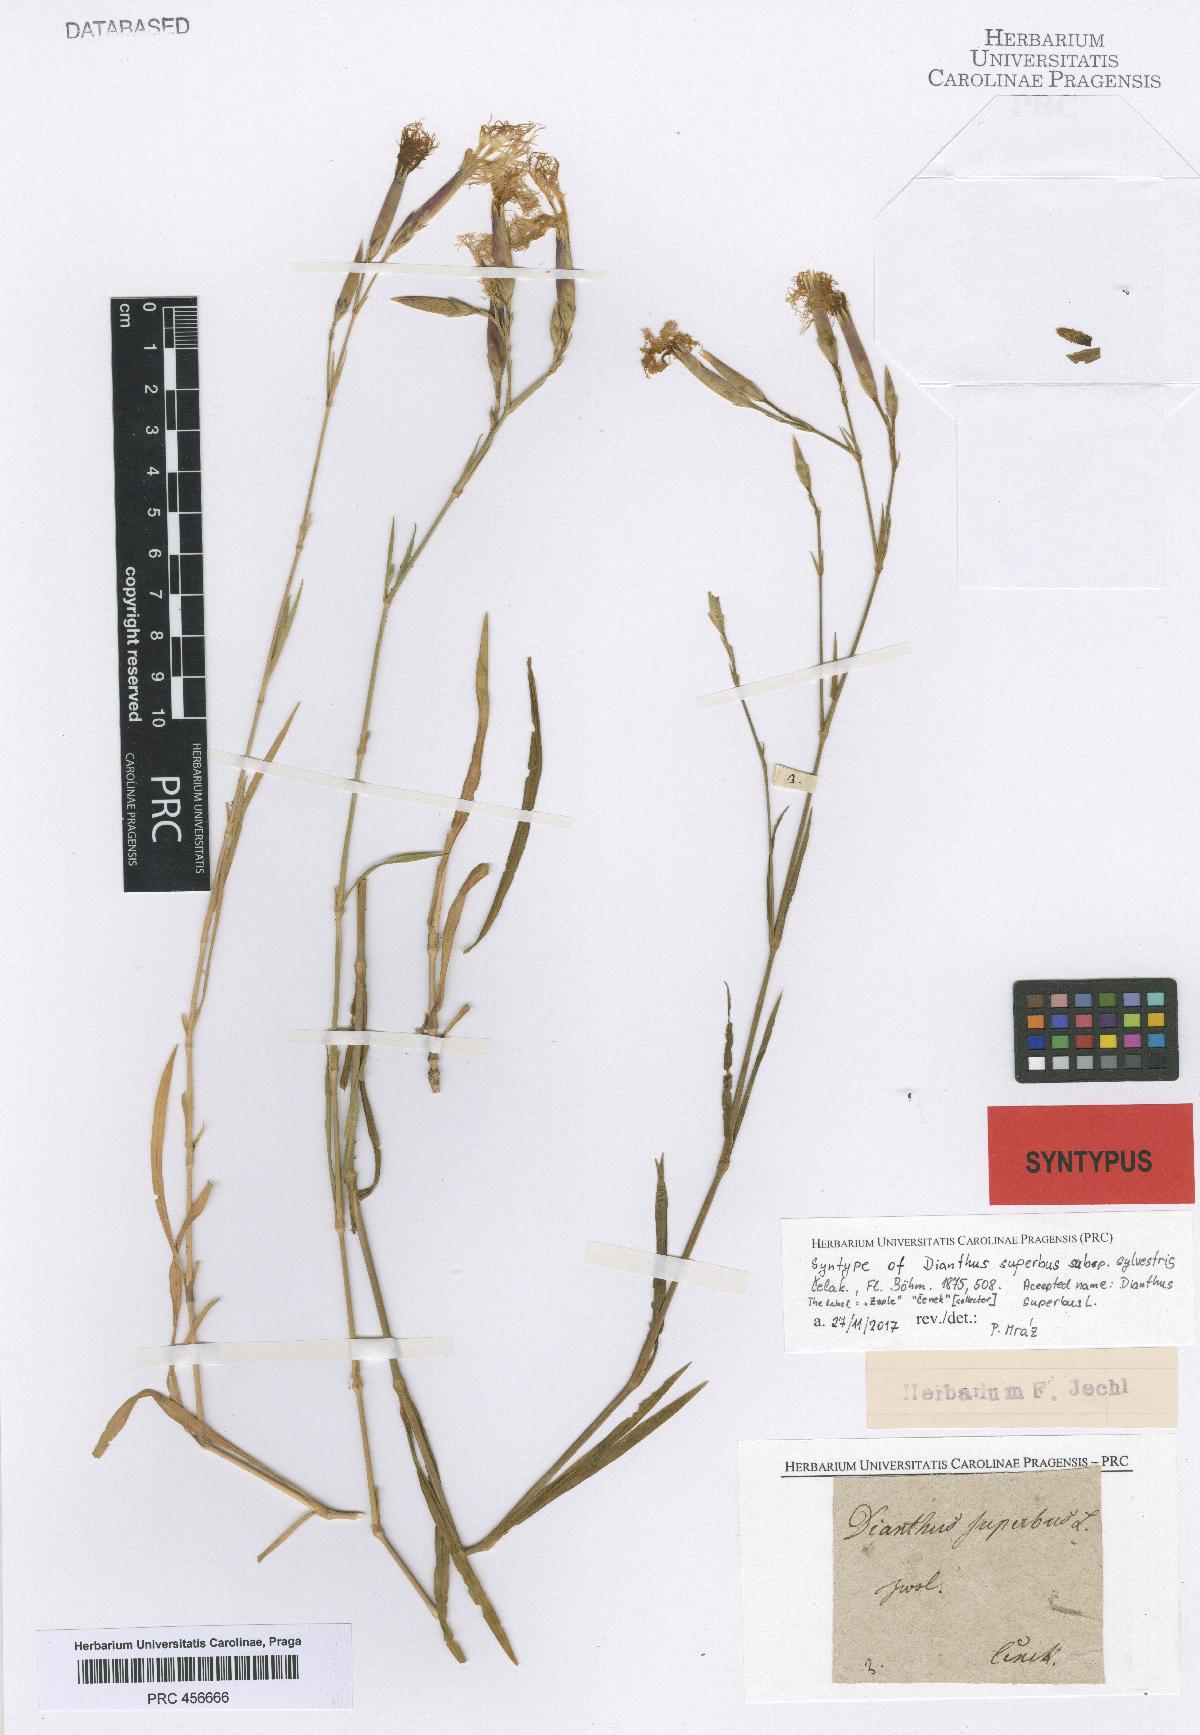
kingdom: Plantae
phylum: Tracheophyta
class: Magnoliopsida
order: Caryophyllales
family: Caryophyllaceae
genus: Dianthus
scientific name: Dianthus superbus
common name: Fringed pink
